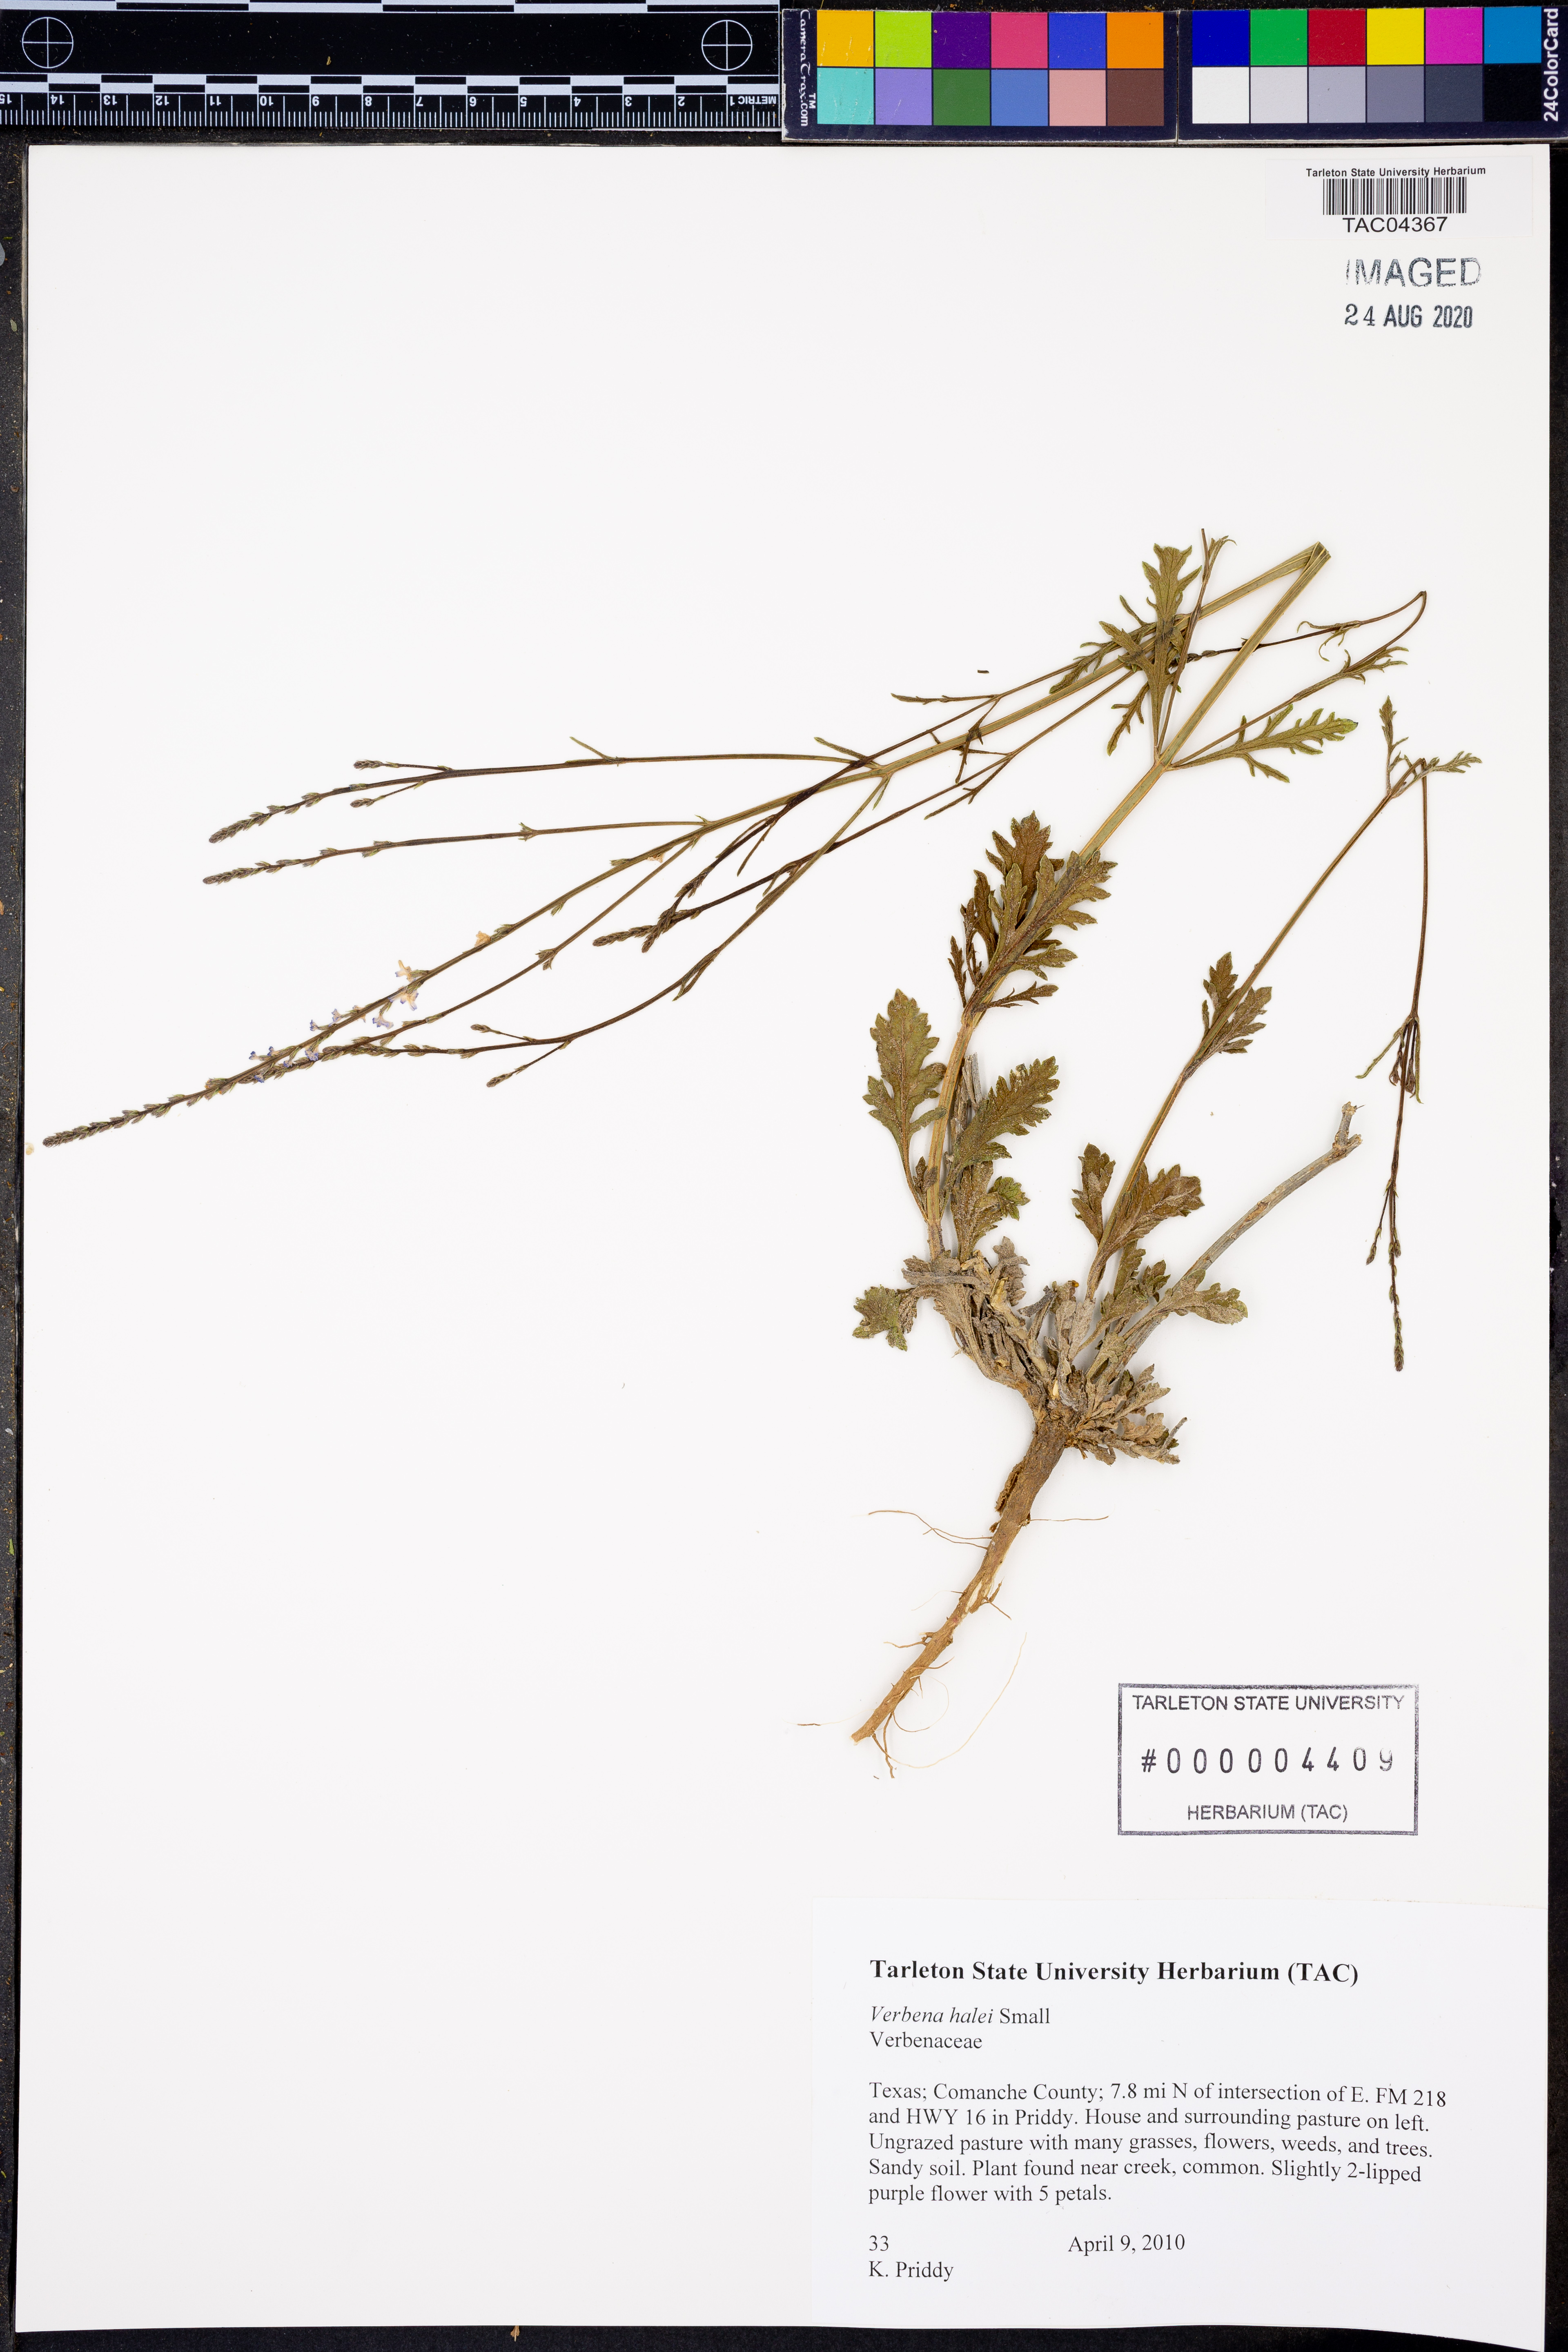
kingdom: Plantae
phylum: Tracheophyta
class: Magnoliopsida
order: Lamiales
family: Verbenaceae
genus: Verbena
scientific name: Verbena halei
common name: Texas vervain
